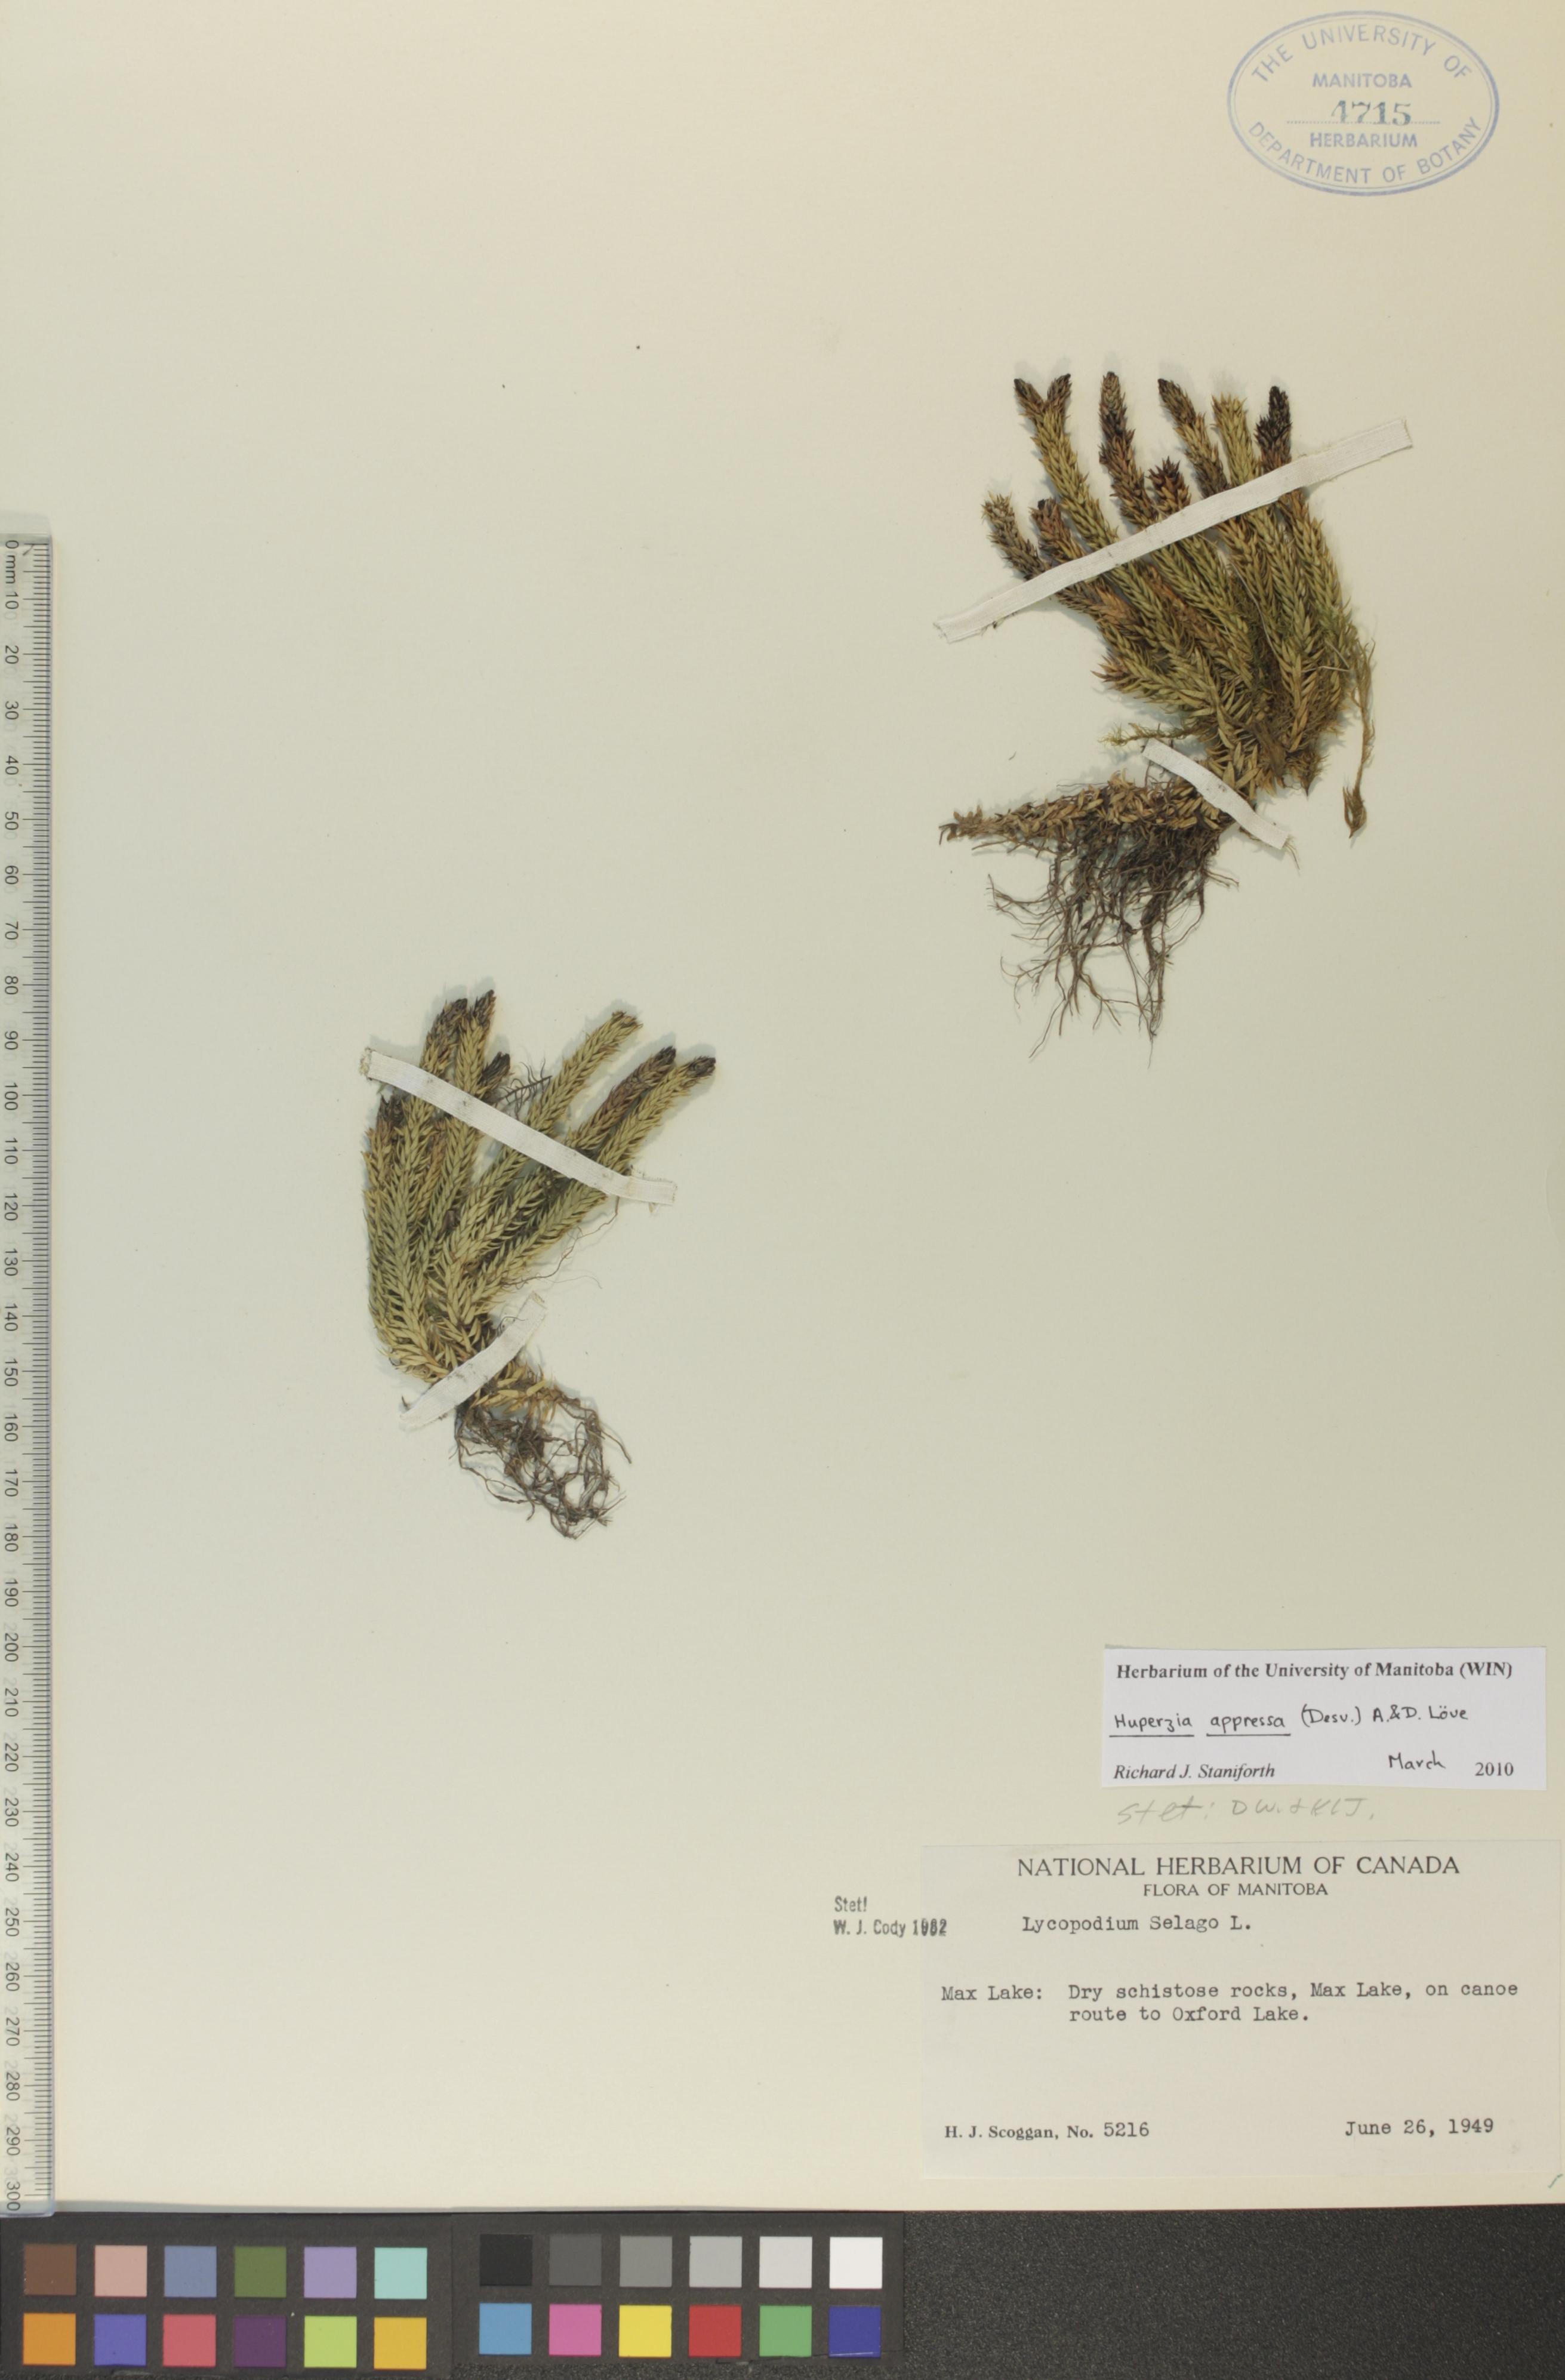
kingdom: Plantae
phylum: Tracheophyta
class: Lycopodiopsida
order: Lycopodiales
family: Lycopodiaceae
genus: Huperzia
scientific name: Huperzia selago
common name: Northern firmoss
